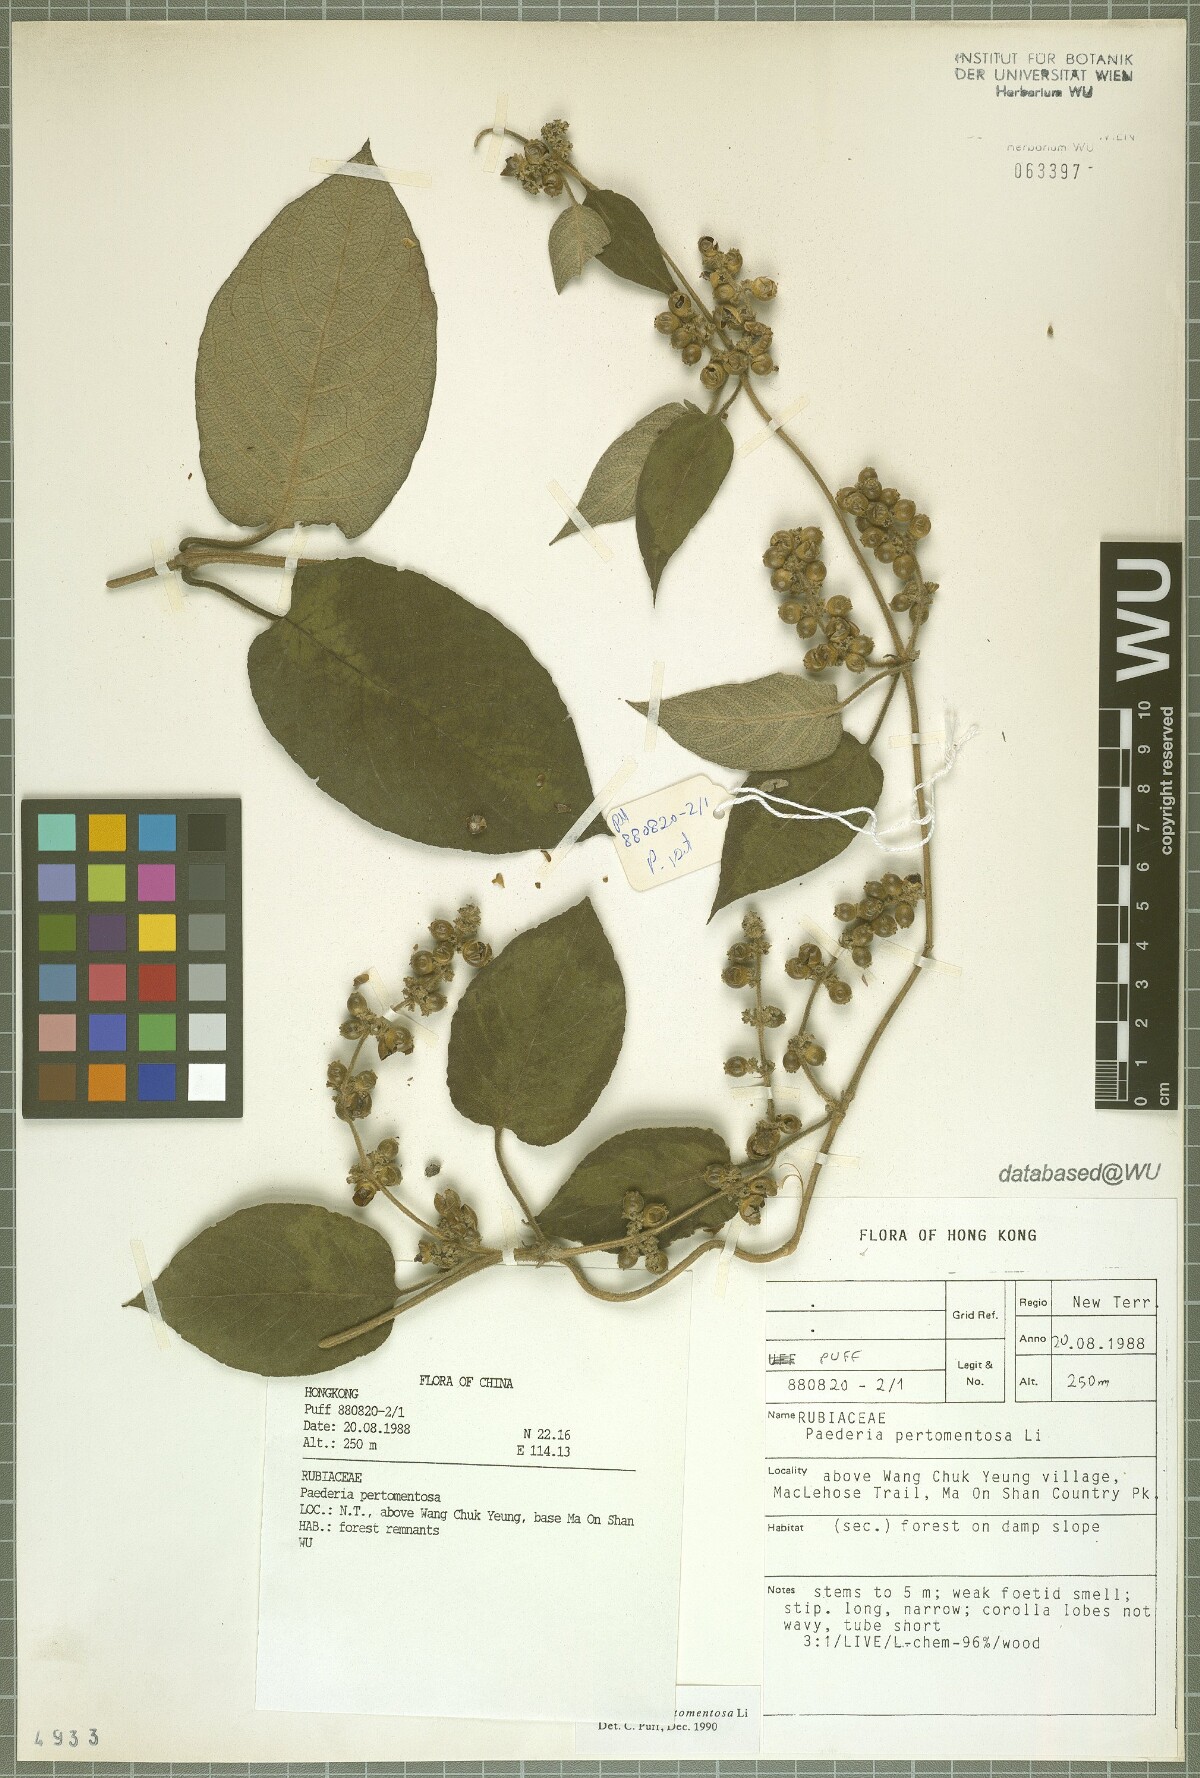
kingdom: Plantae
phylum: Tracheophyta
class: Magnoliopsida
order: Gentianales
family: Rubiaceae
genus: Paederia
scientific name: Paederia pertomentosa
